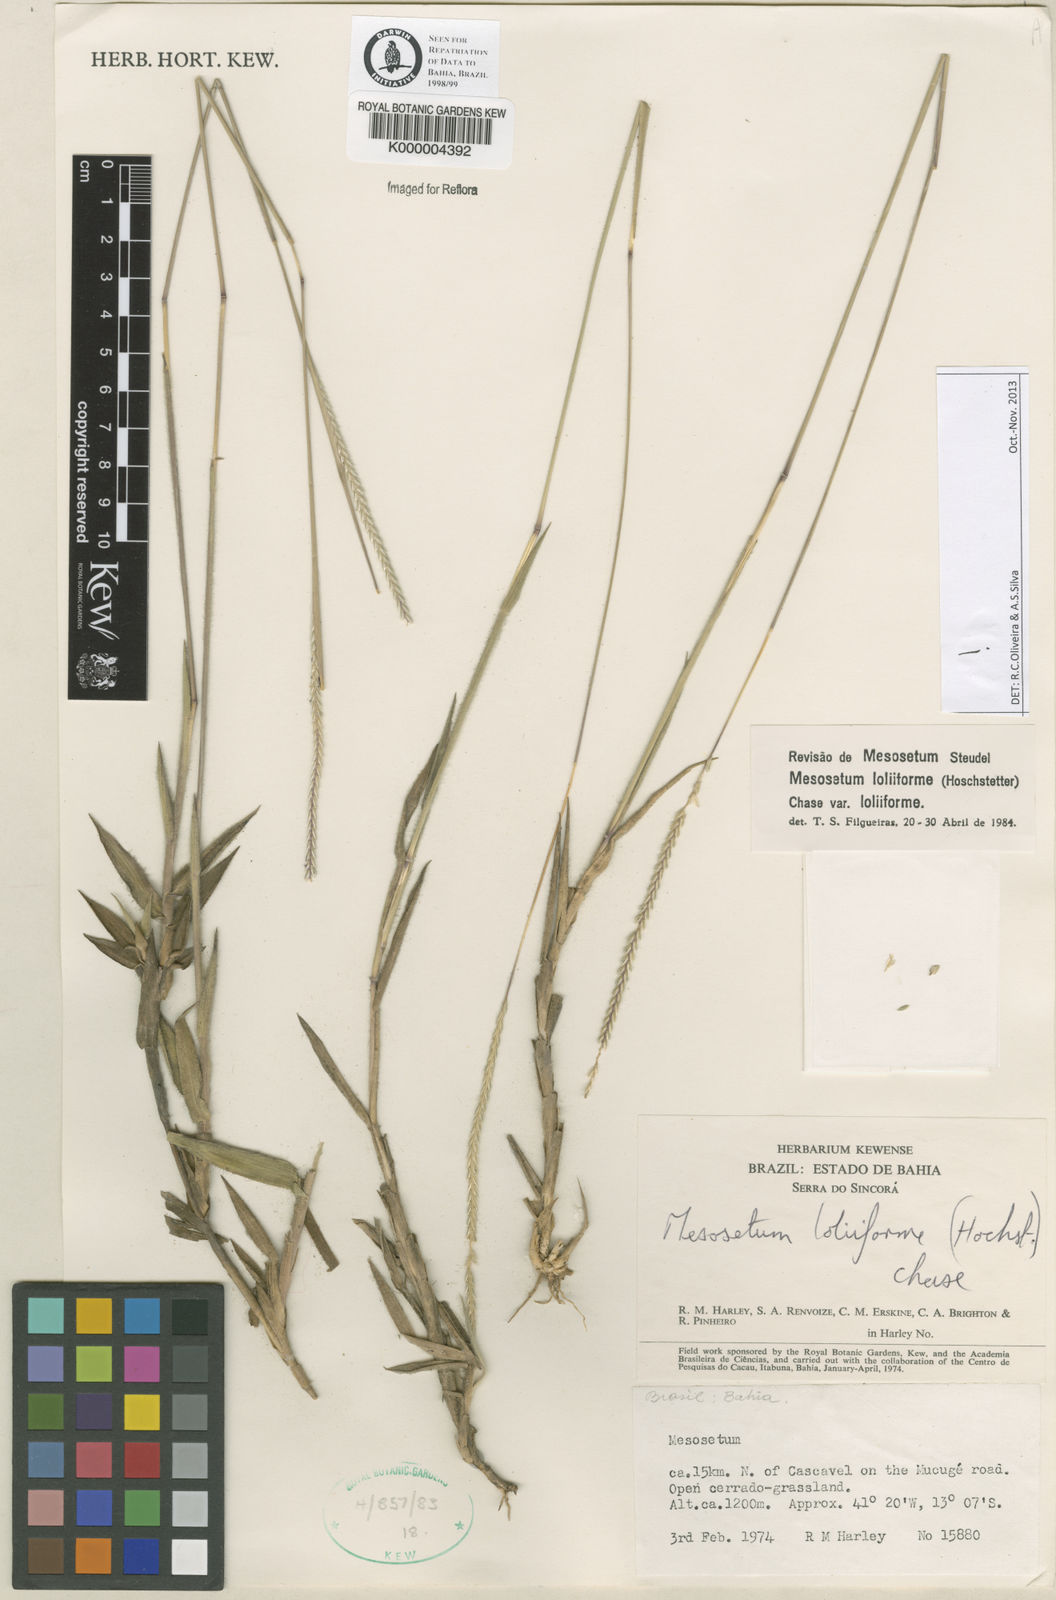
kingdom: Plantae
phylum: Tracheophyta
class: Liliopsida
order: Poales
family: Poaceae
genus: Mesosetum
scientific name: Mesosetum
